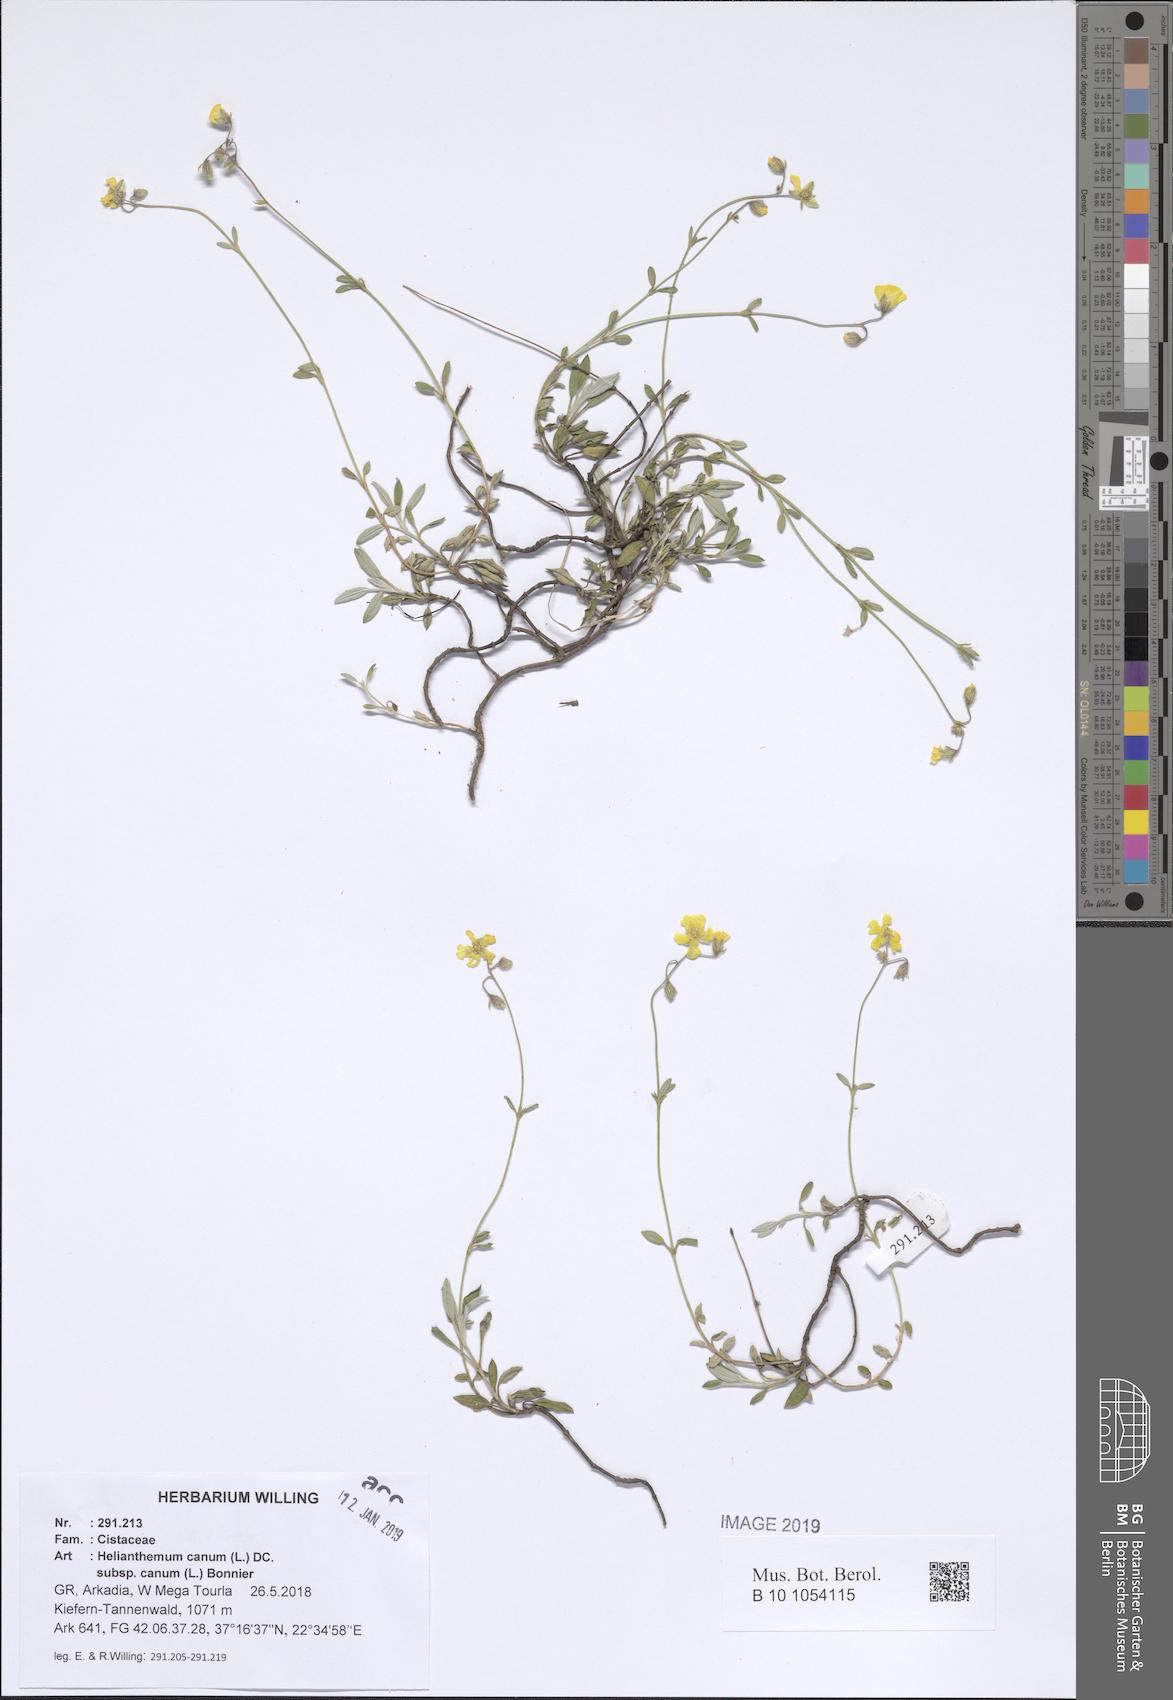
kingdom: Plantae
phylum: Tracheophyta
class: Magnoliopsida
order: Malvales
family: Cistaceae
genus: Helianthemum
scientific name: Helianthemum canum
